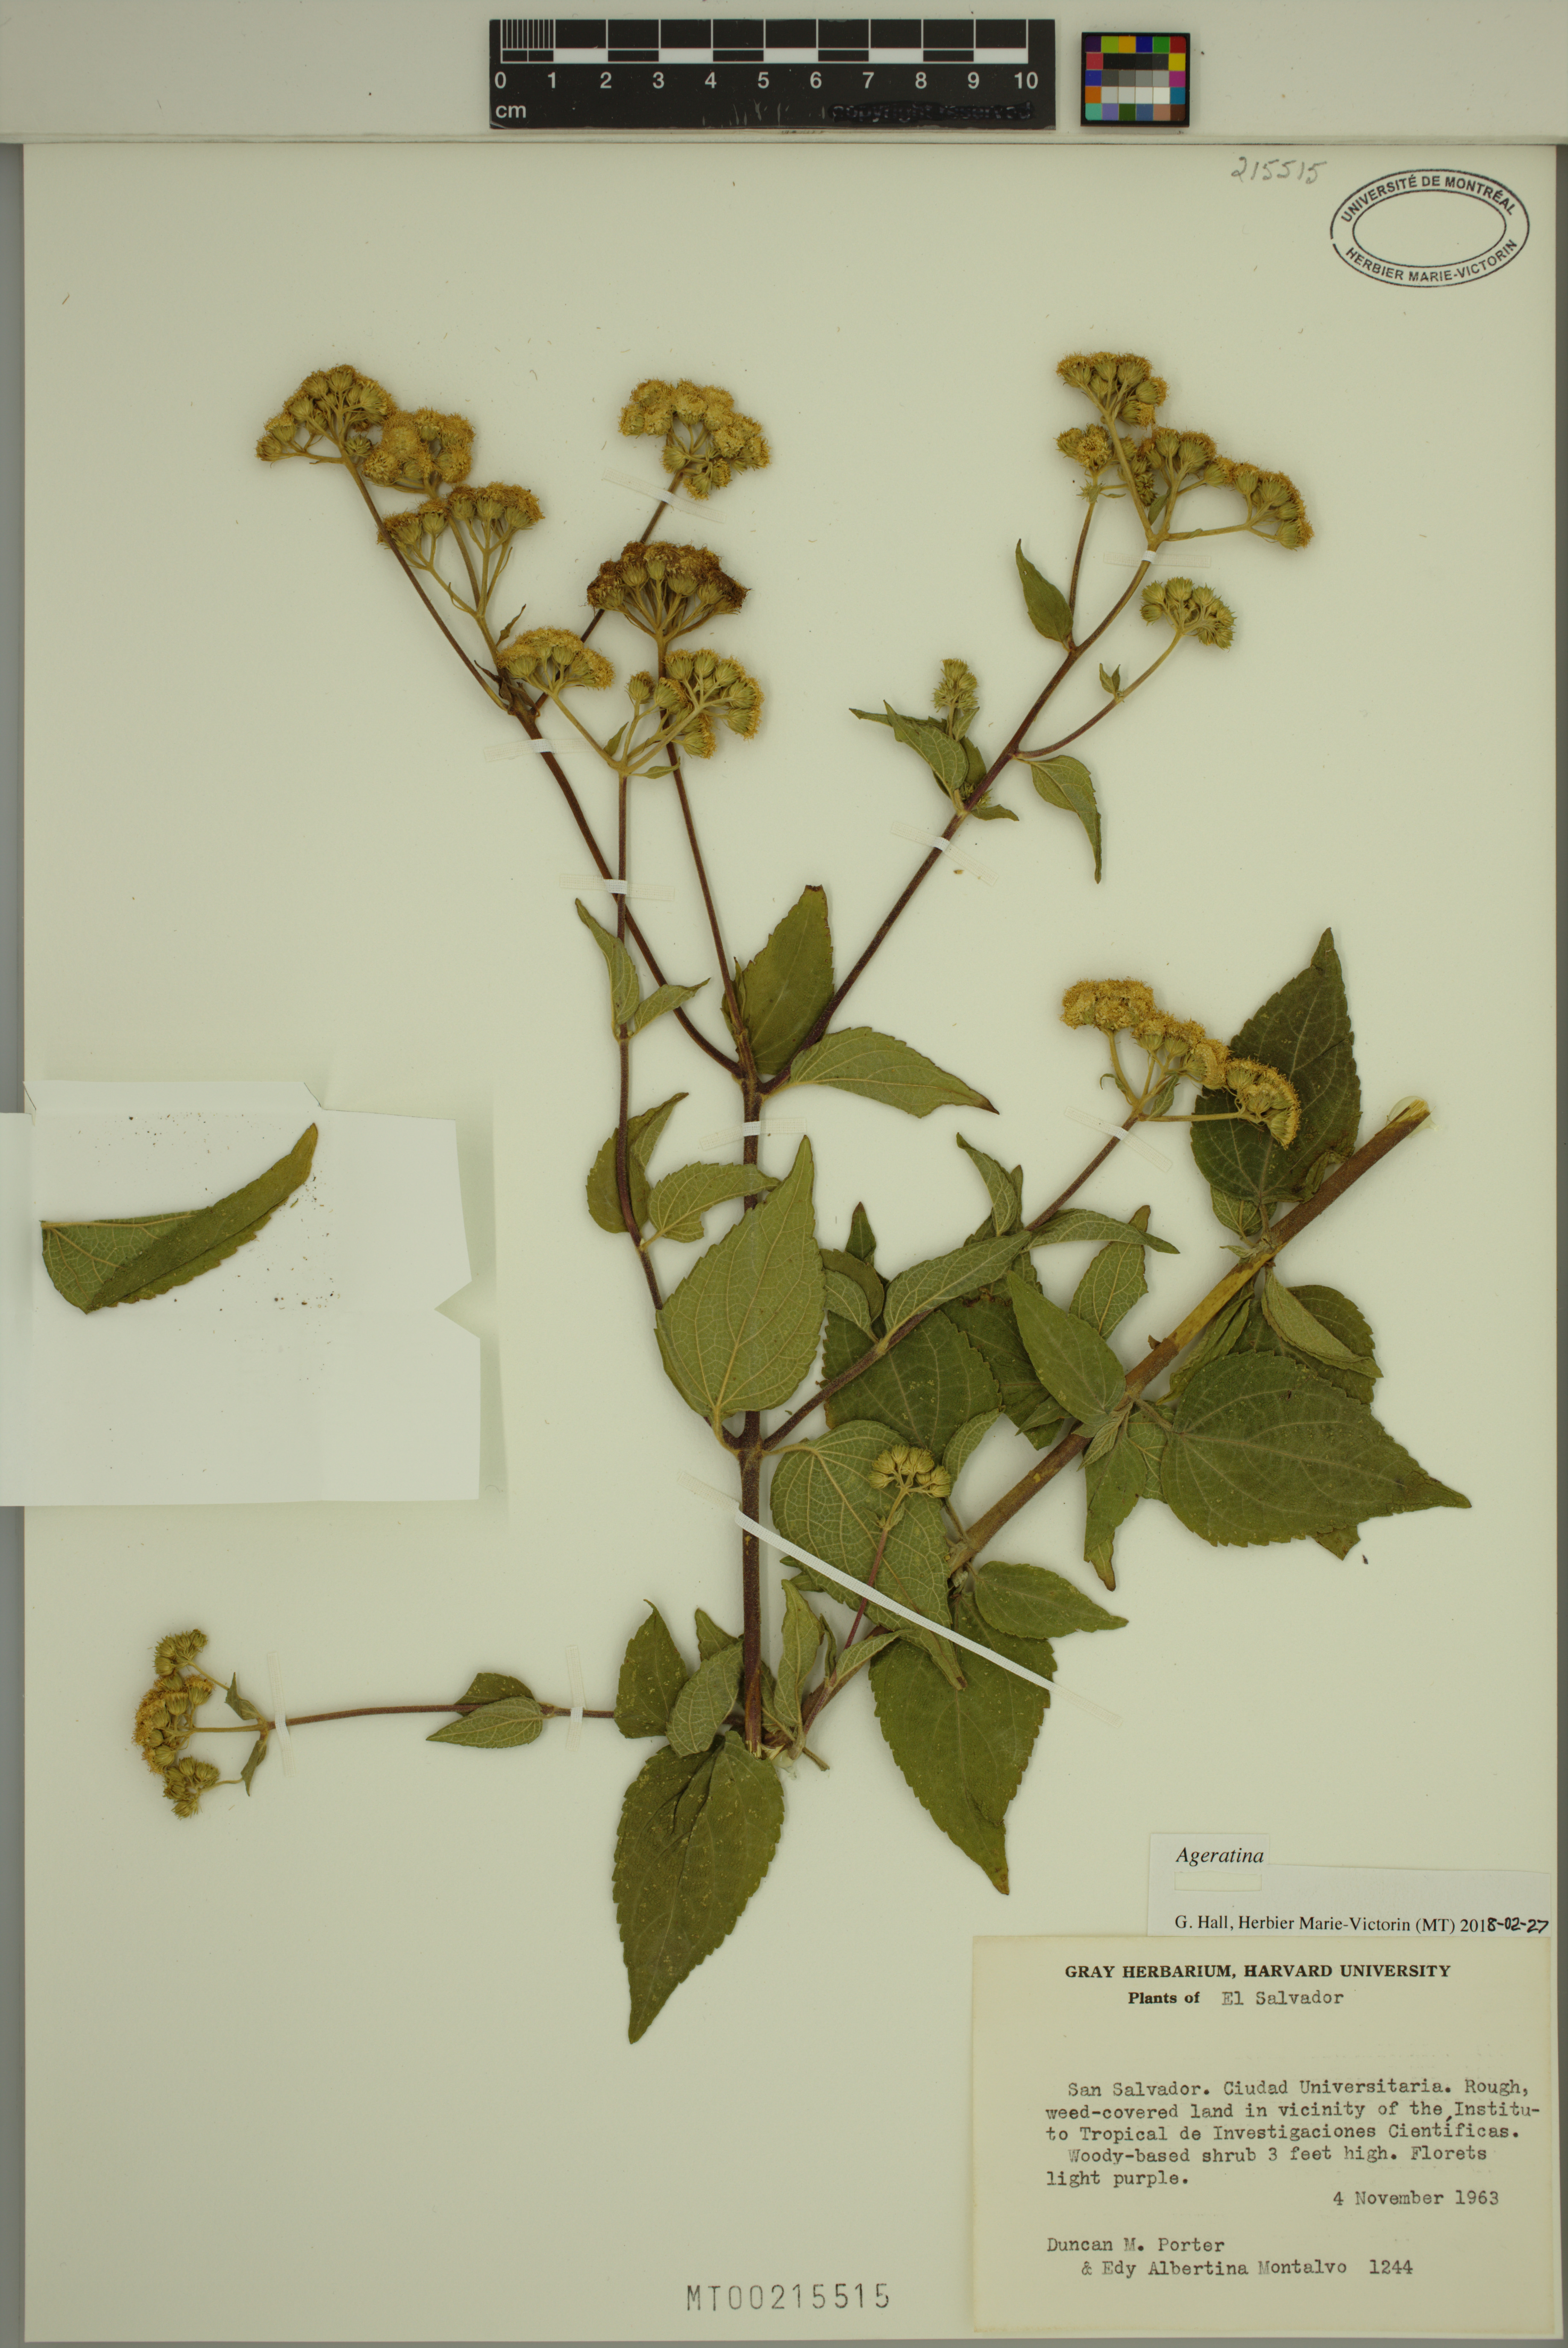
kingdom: Plantae
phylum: Tracheophyta
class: Magnoliopsida
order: Asterales
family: Asteraceae
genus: Ageratina
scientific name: Ageratina
